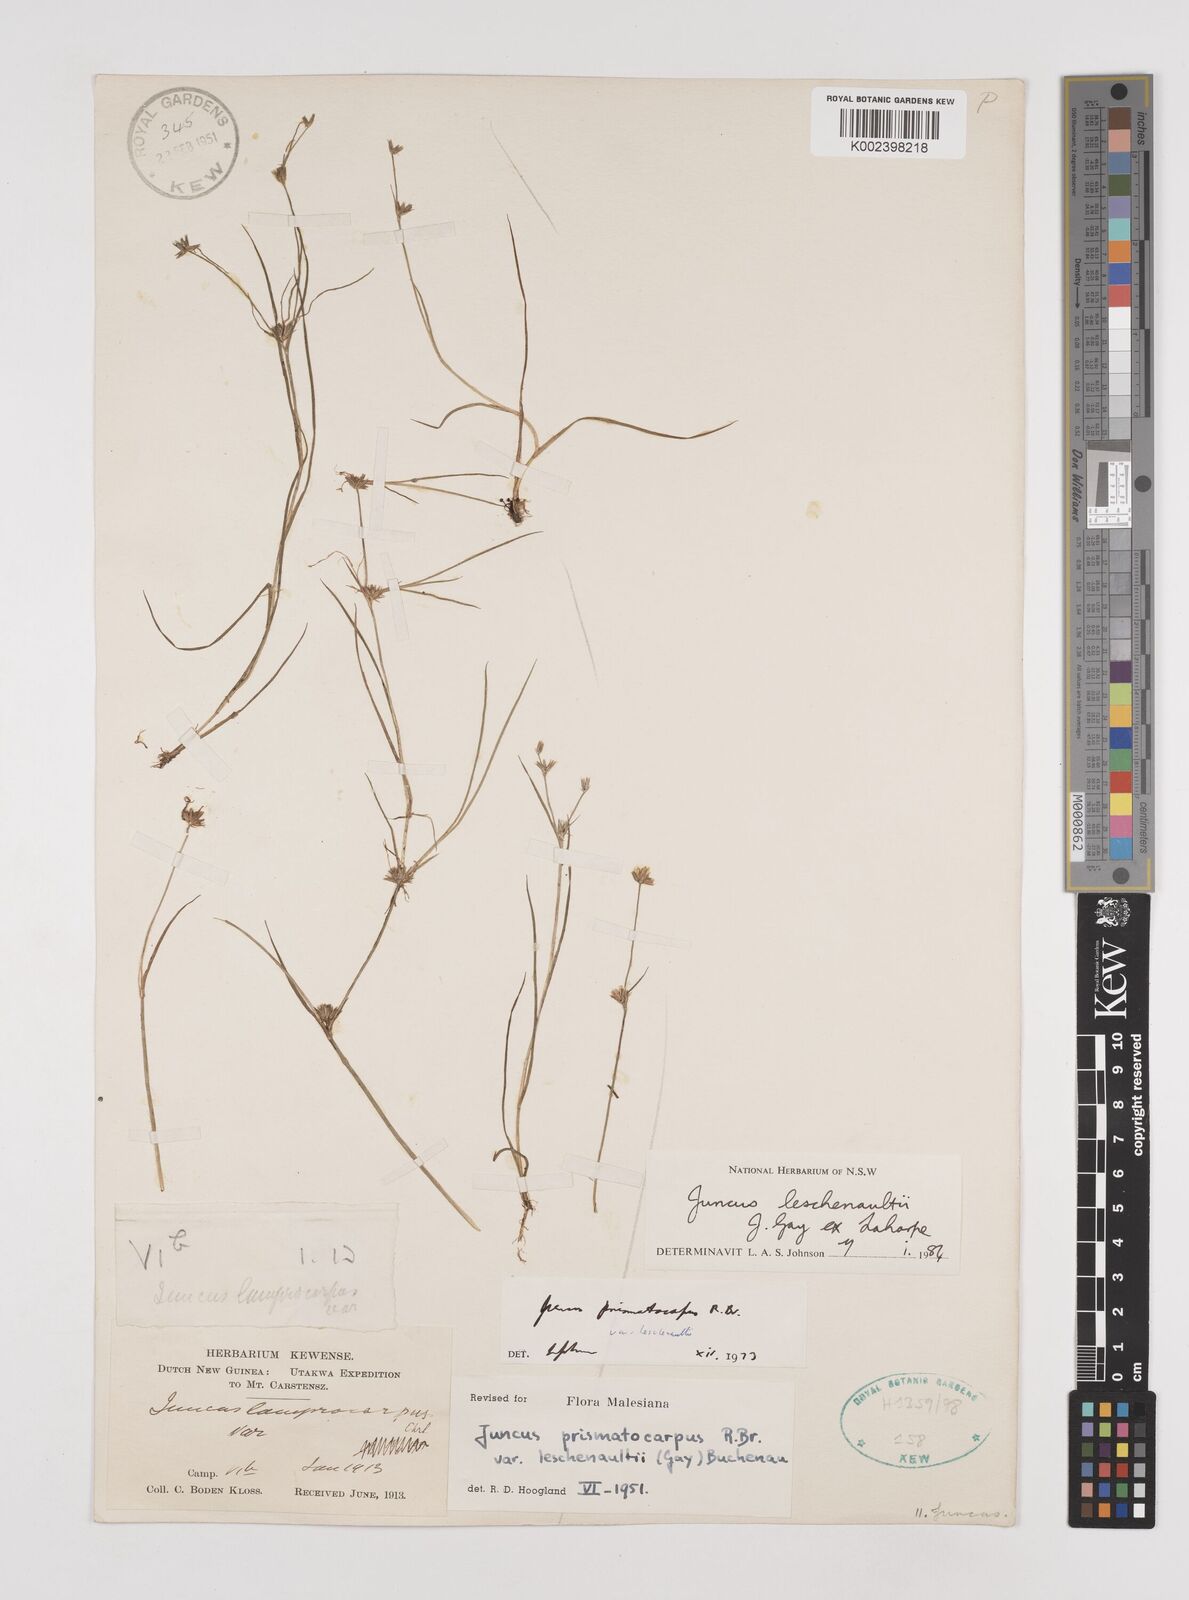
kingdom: Plantae
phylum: Tracheophyta
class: Liliopsida
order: Poales
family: Juncaceae
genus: Juncus
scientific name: Juncus prismatocarpus
